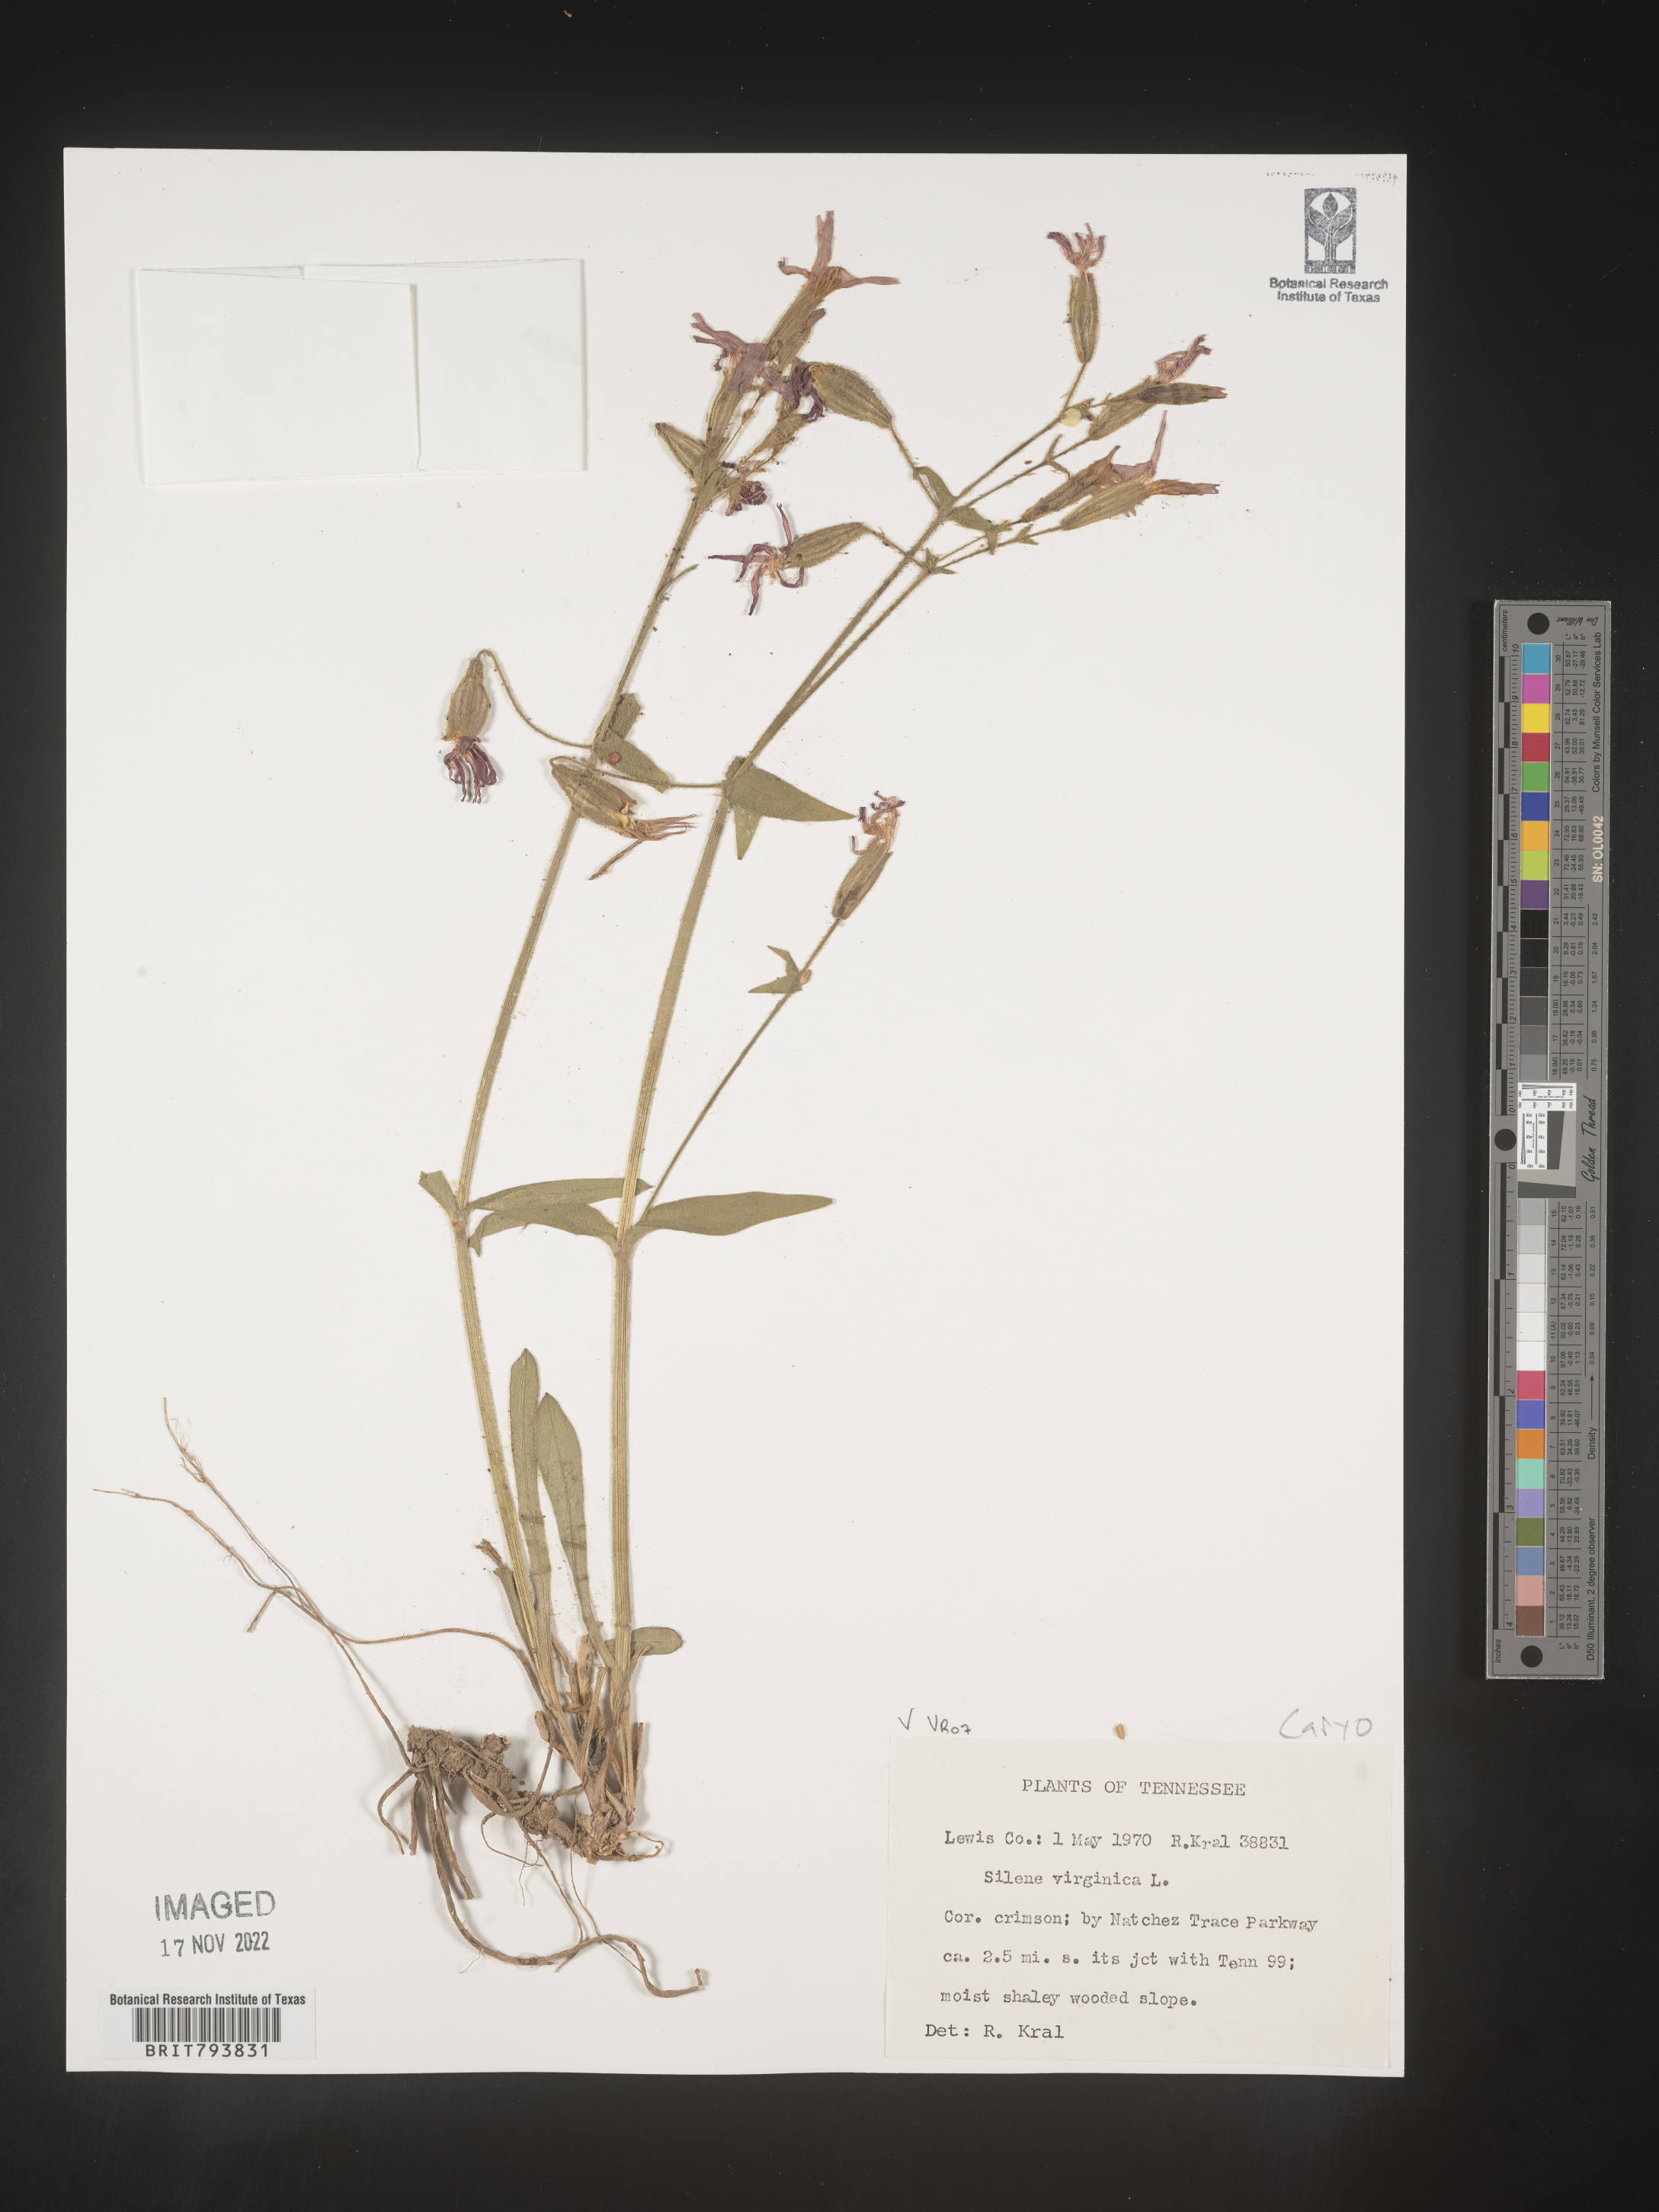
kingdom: Plantae
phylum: Tracheophyta
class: Magnoliopsida
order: Caryophyllales
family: Caryophyllaceae
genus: Silene
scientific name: Silene virginica
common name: Fire-pink
